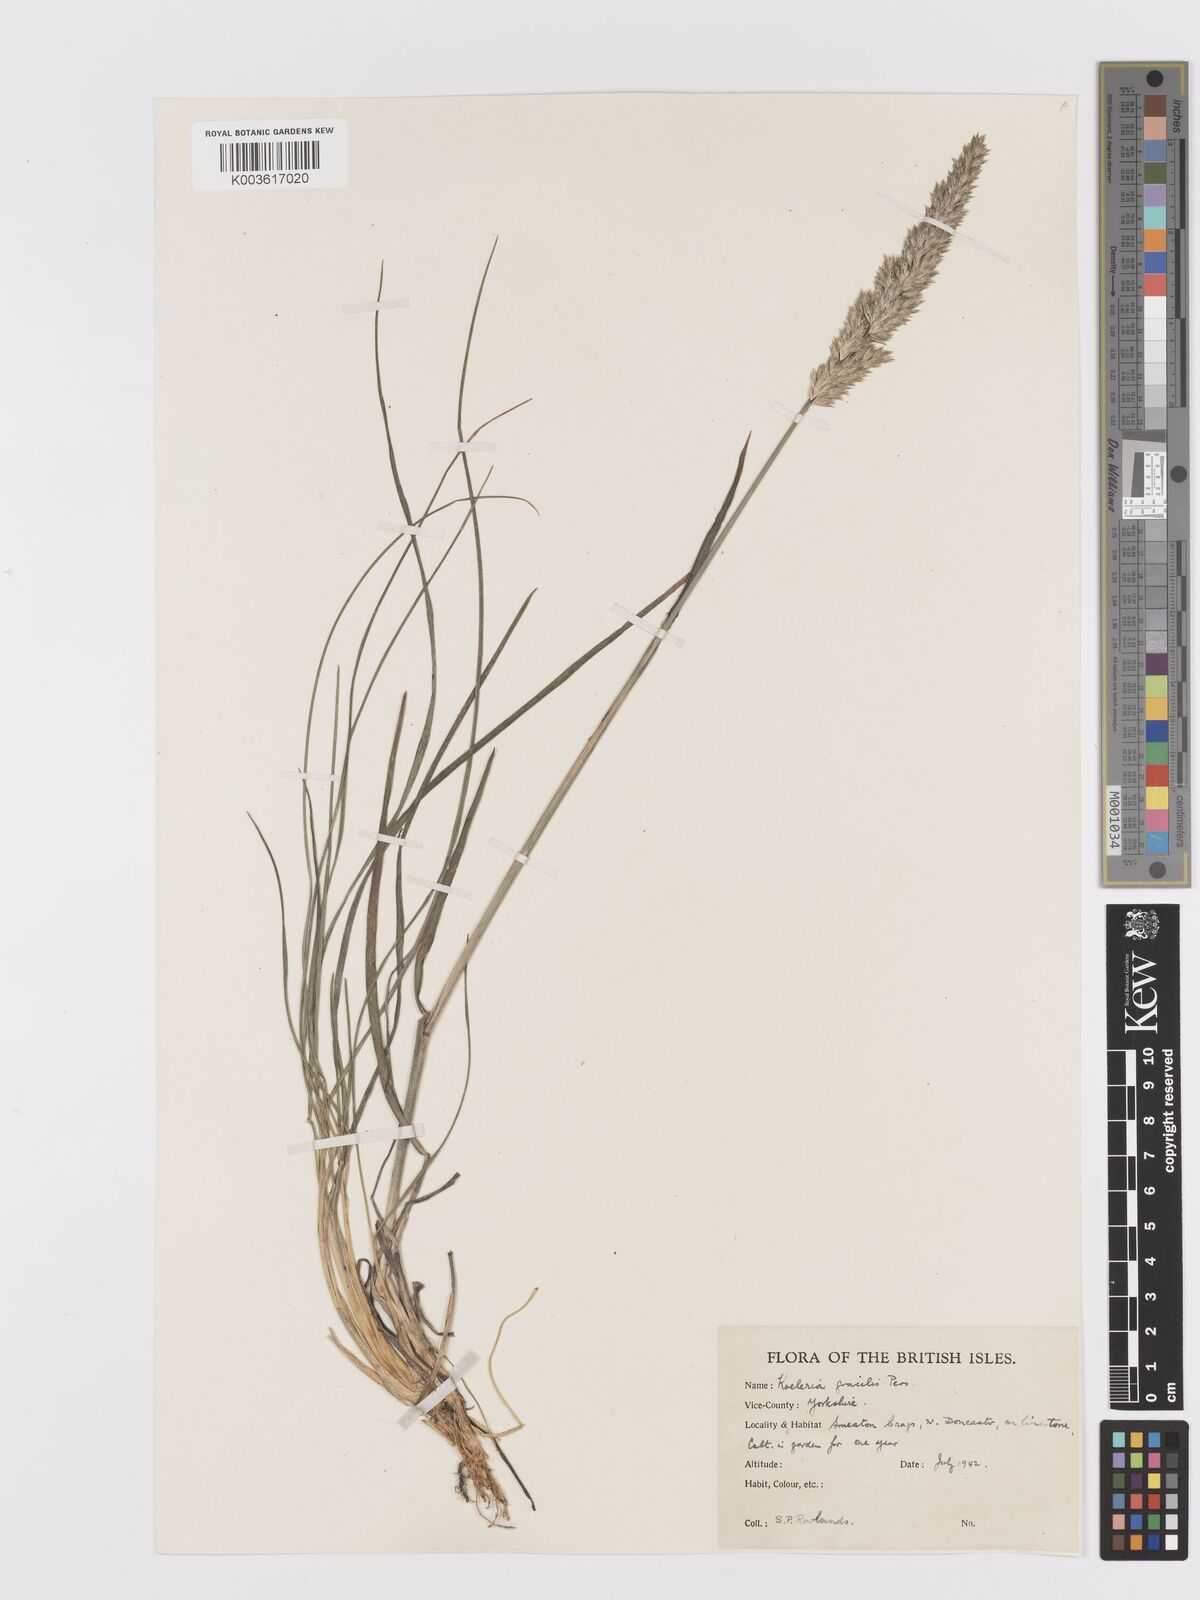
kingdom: Plantae
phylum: Tracheophyta
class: Liliopsida
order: Poales
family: Poaceae
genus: Koeleria
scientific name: Koeleria macrantha
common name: Crested hair-grass
